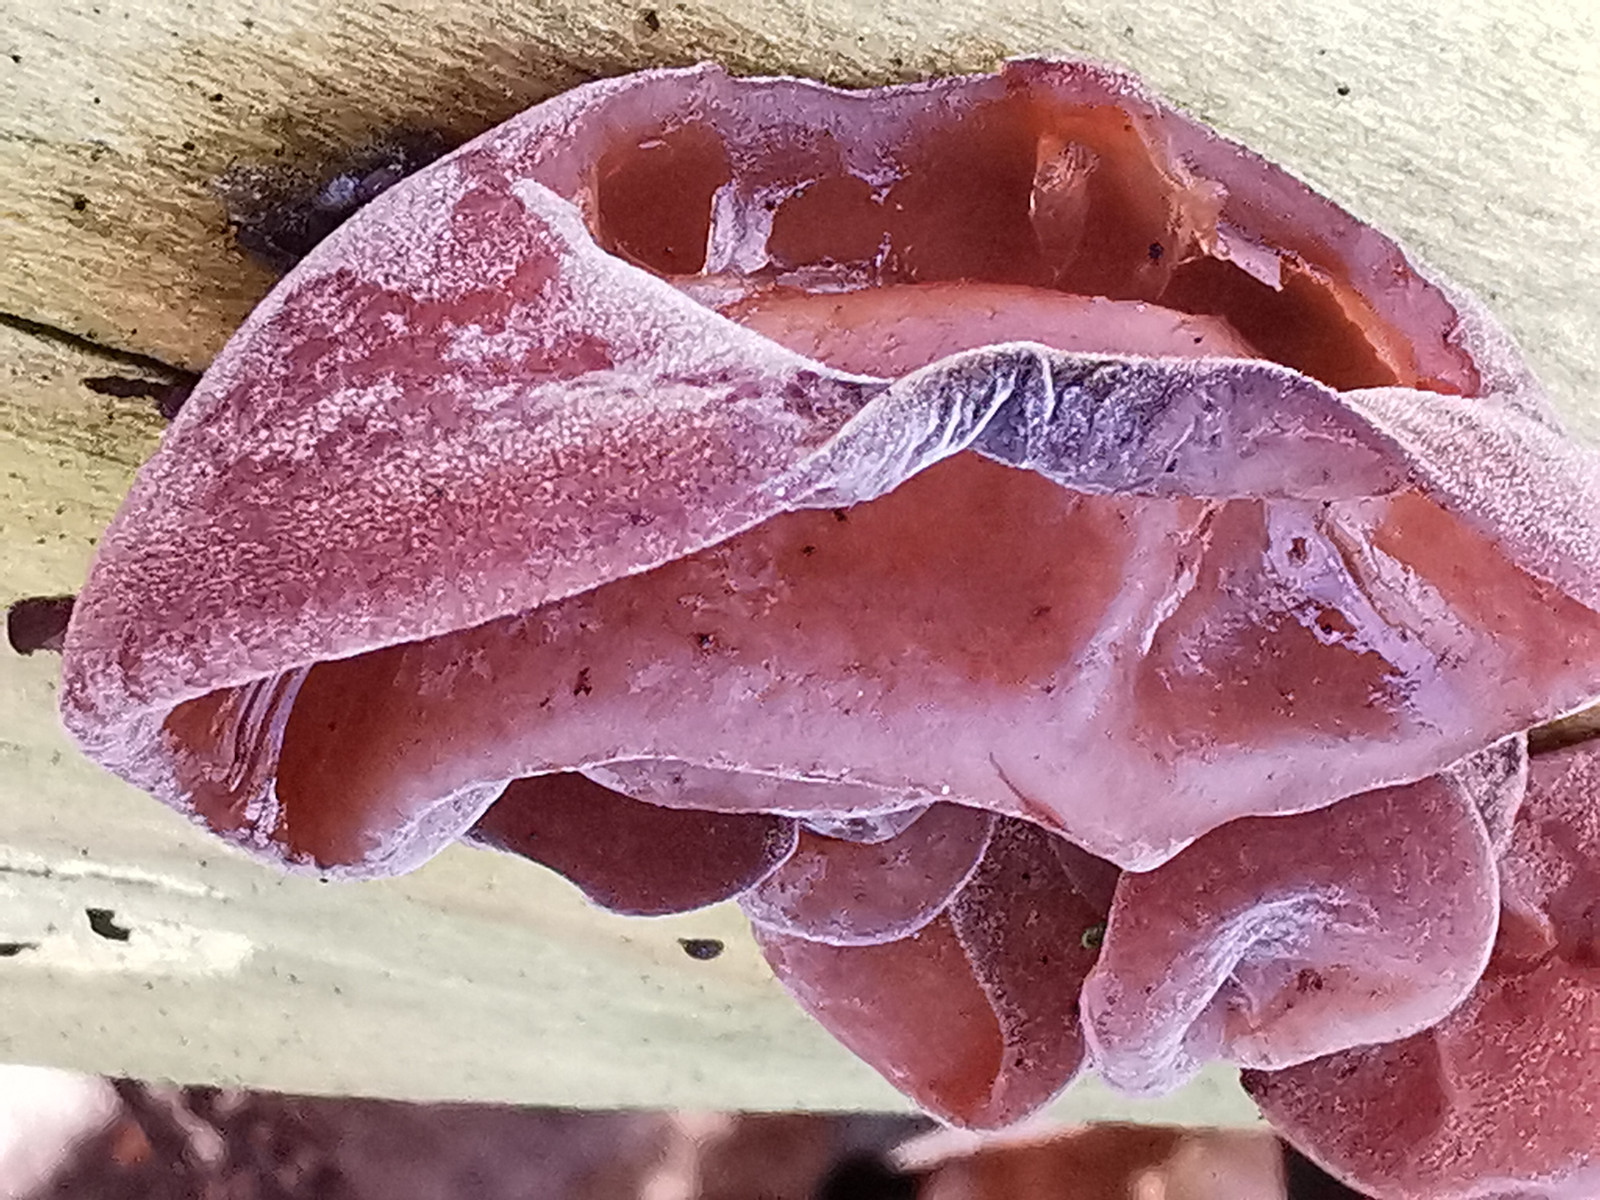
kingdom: Fungi
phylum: Basidiomycota
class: Agaricomycetes
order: Auriculariales
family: Auriculariaceae
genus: Auricularia
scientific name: Auricularia auricula-judae
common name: almindelig judasøre
